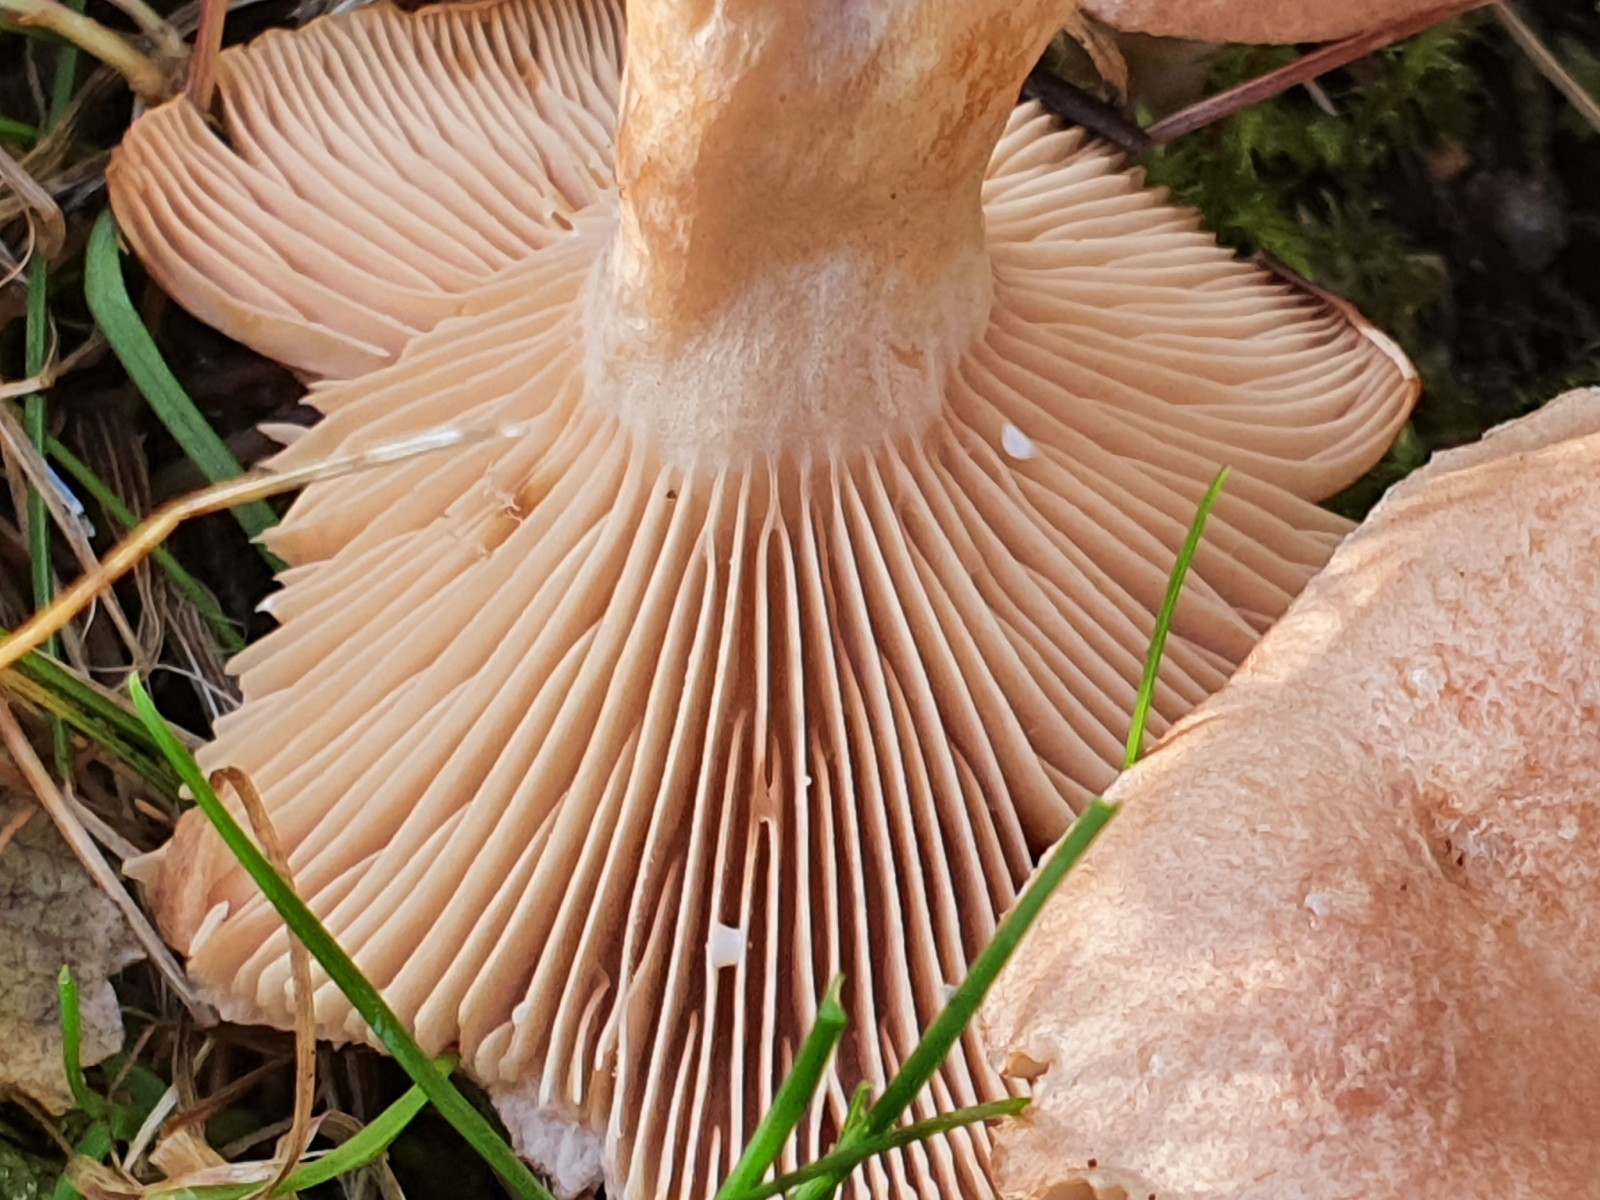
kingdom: Fungi
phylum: Basidiomycota
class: Agaricomycetes
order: Russulales
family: Russulaceae
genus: Lactarius
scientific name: Lactarius glyciosmus
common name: kokos-mælkehat
